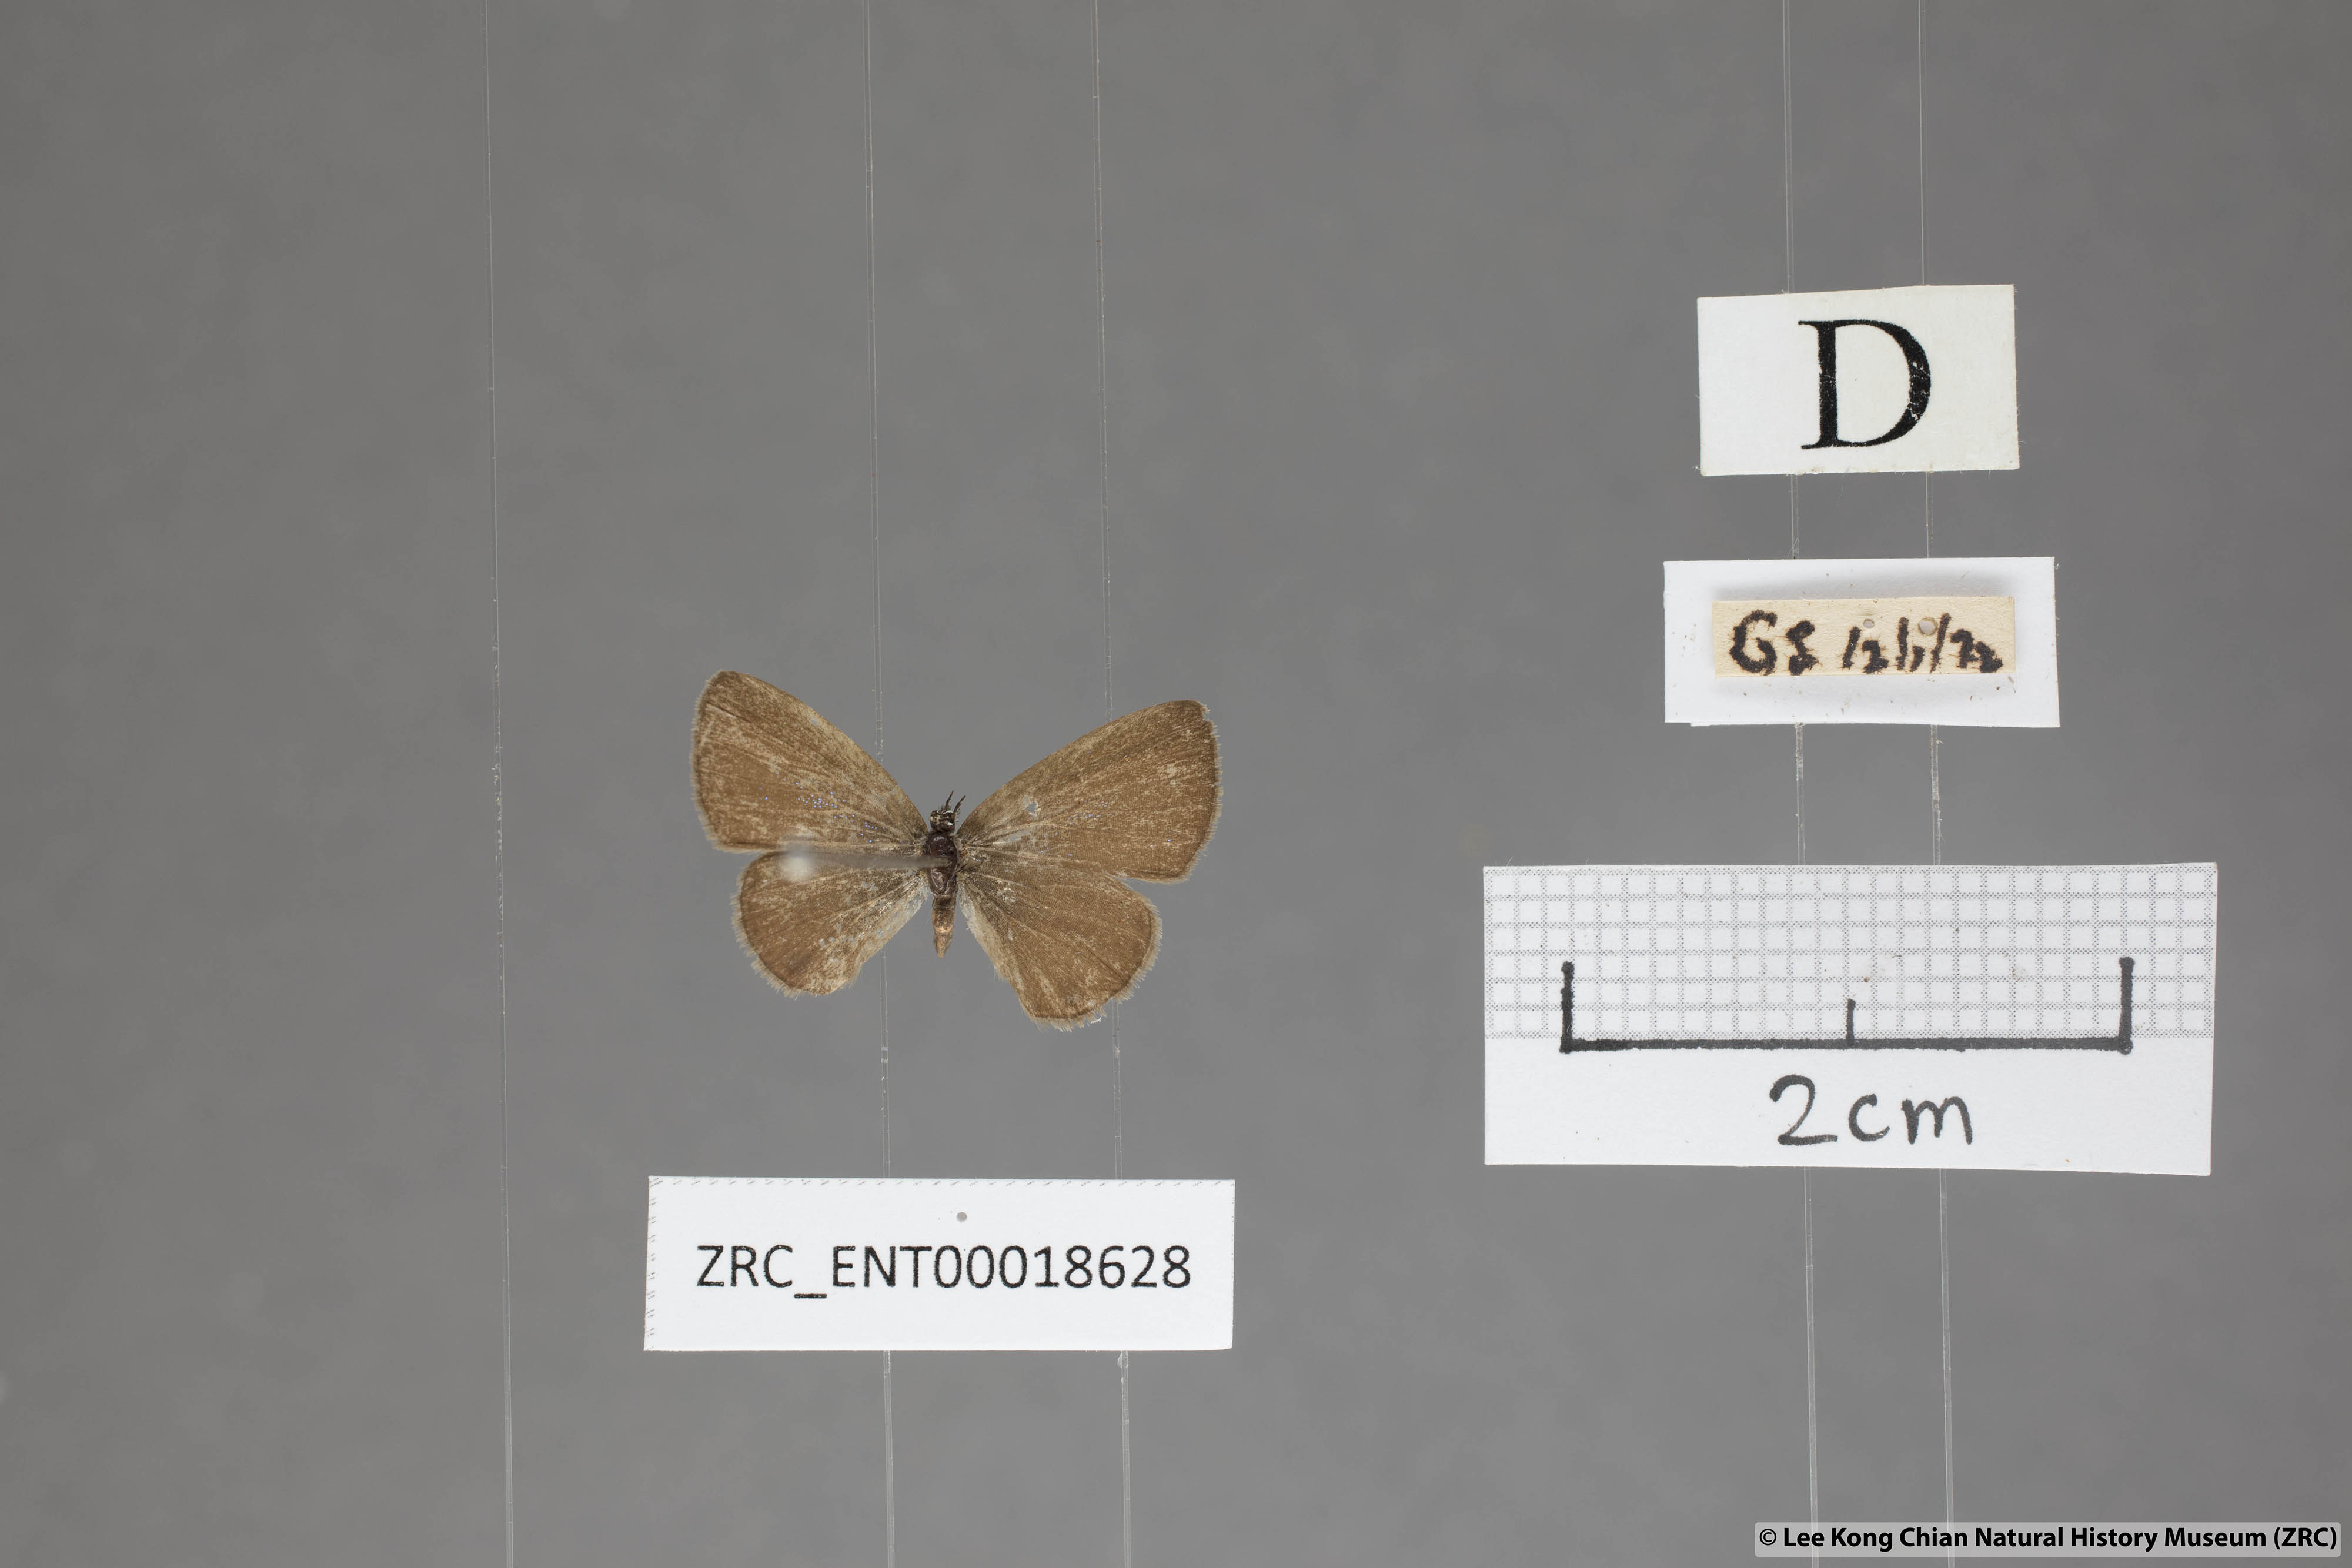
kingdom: Animalia
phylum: Arthropoda
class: Insecta
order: Lepidoptera
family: Lycaenidae
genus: Prosotas
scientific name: Prosotas nora
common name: Common line blue
